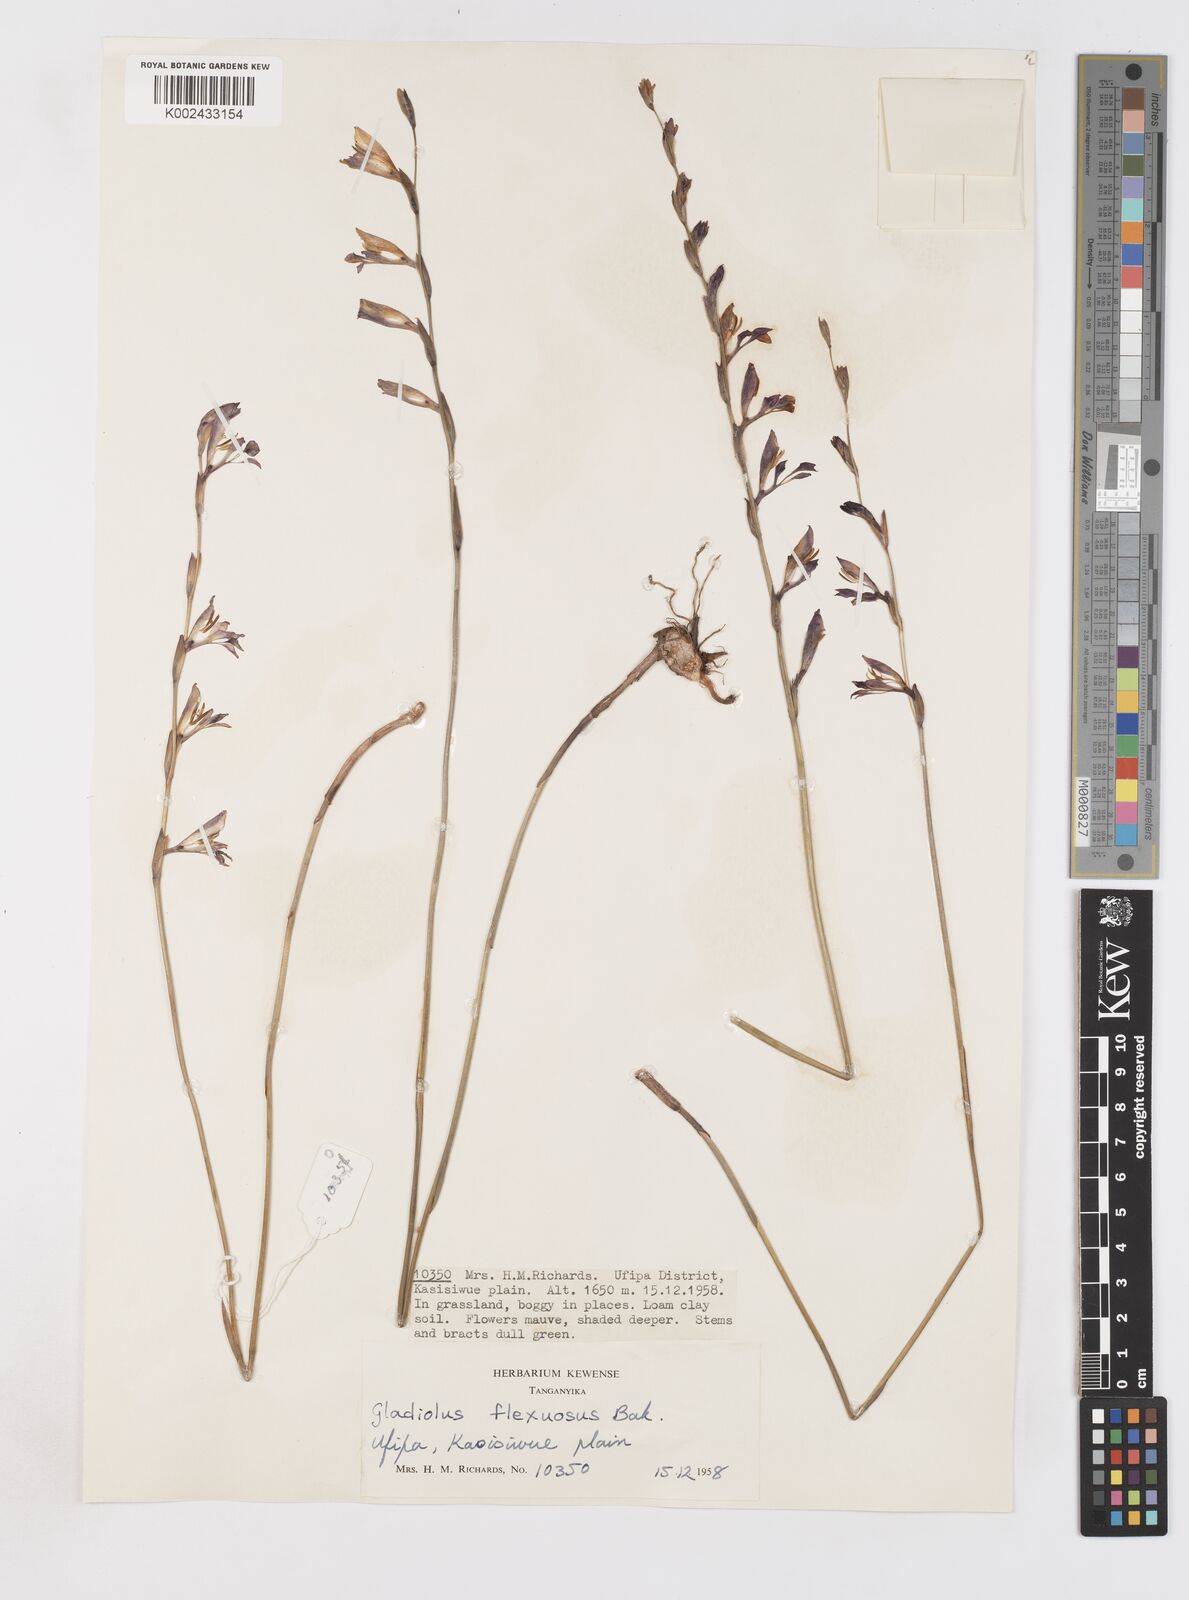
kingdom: Plantae
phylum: Tracheophyta
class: Liliopsida
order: Asparagales
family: Iridaceae
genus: Gladiolus
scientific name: Gladiolus atropurpureus
